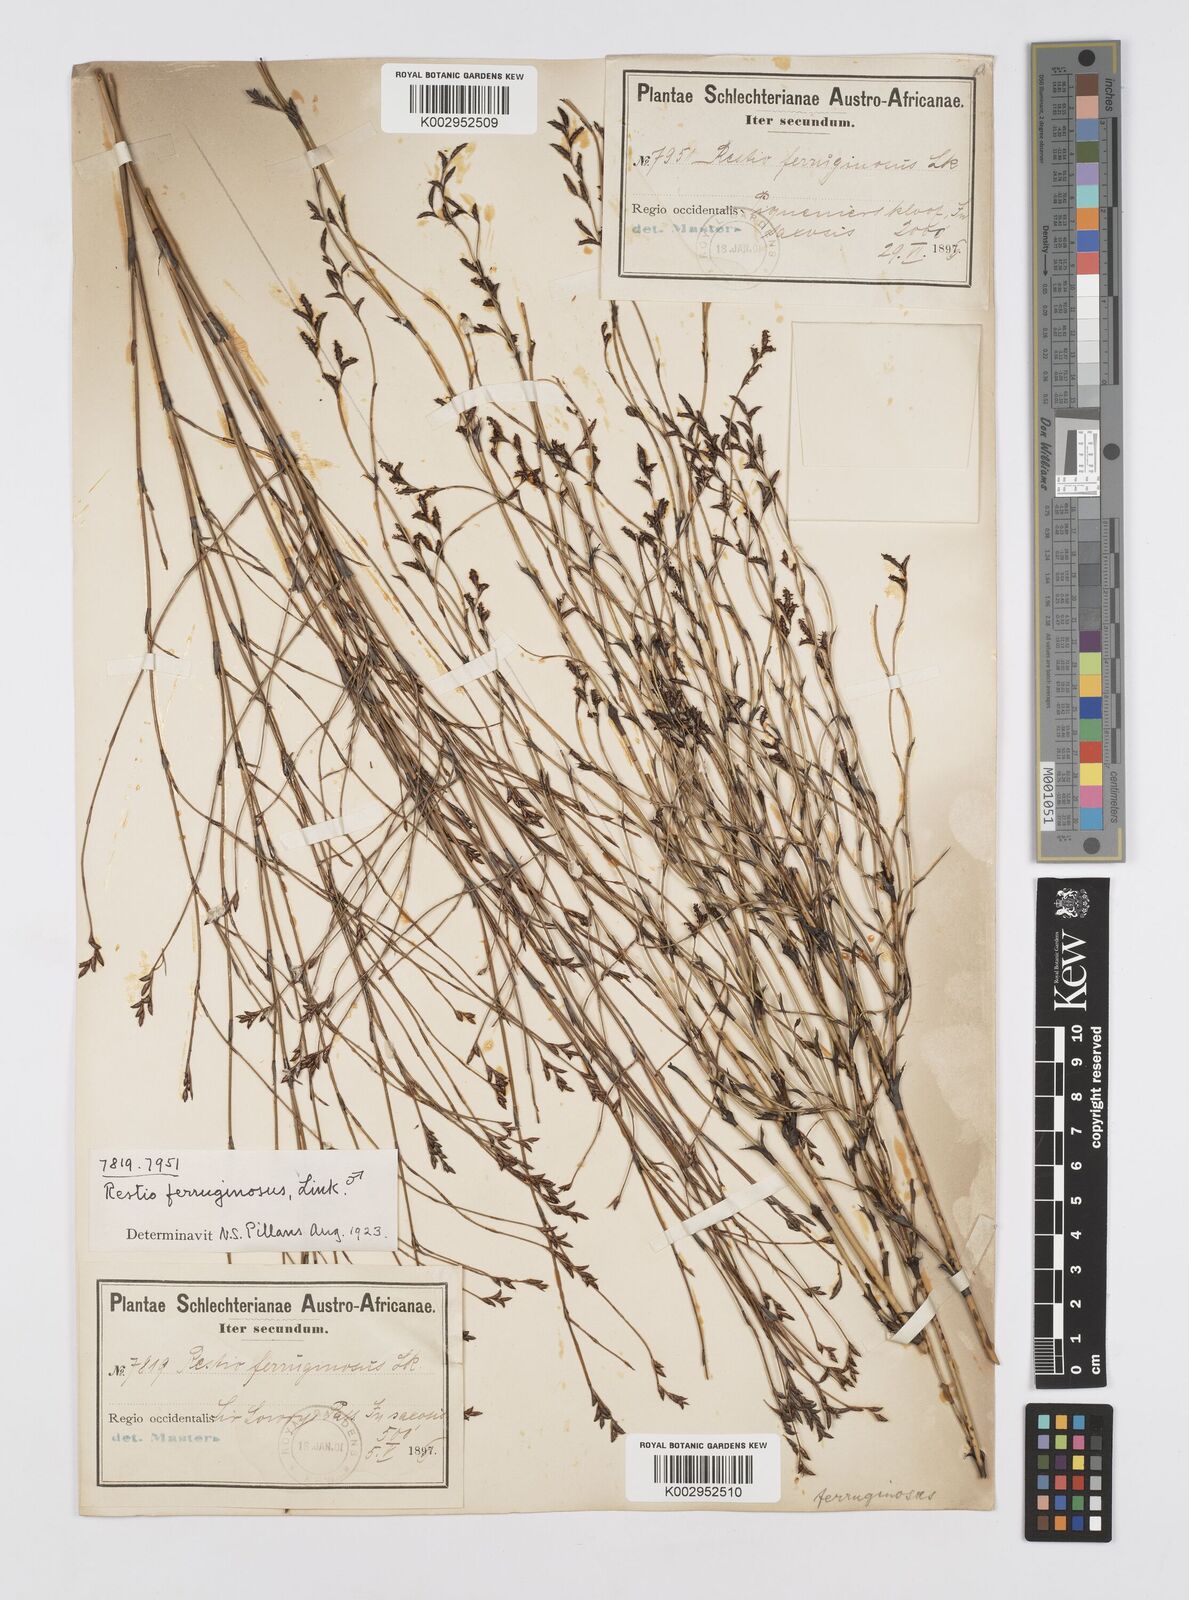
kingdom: Plantae
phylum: Tracheophyta
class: Liliopsida
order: Poales
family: Restionaceae
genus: Restio
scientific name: Restio gaudichaudianus
